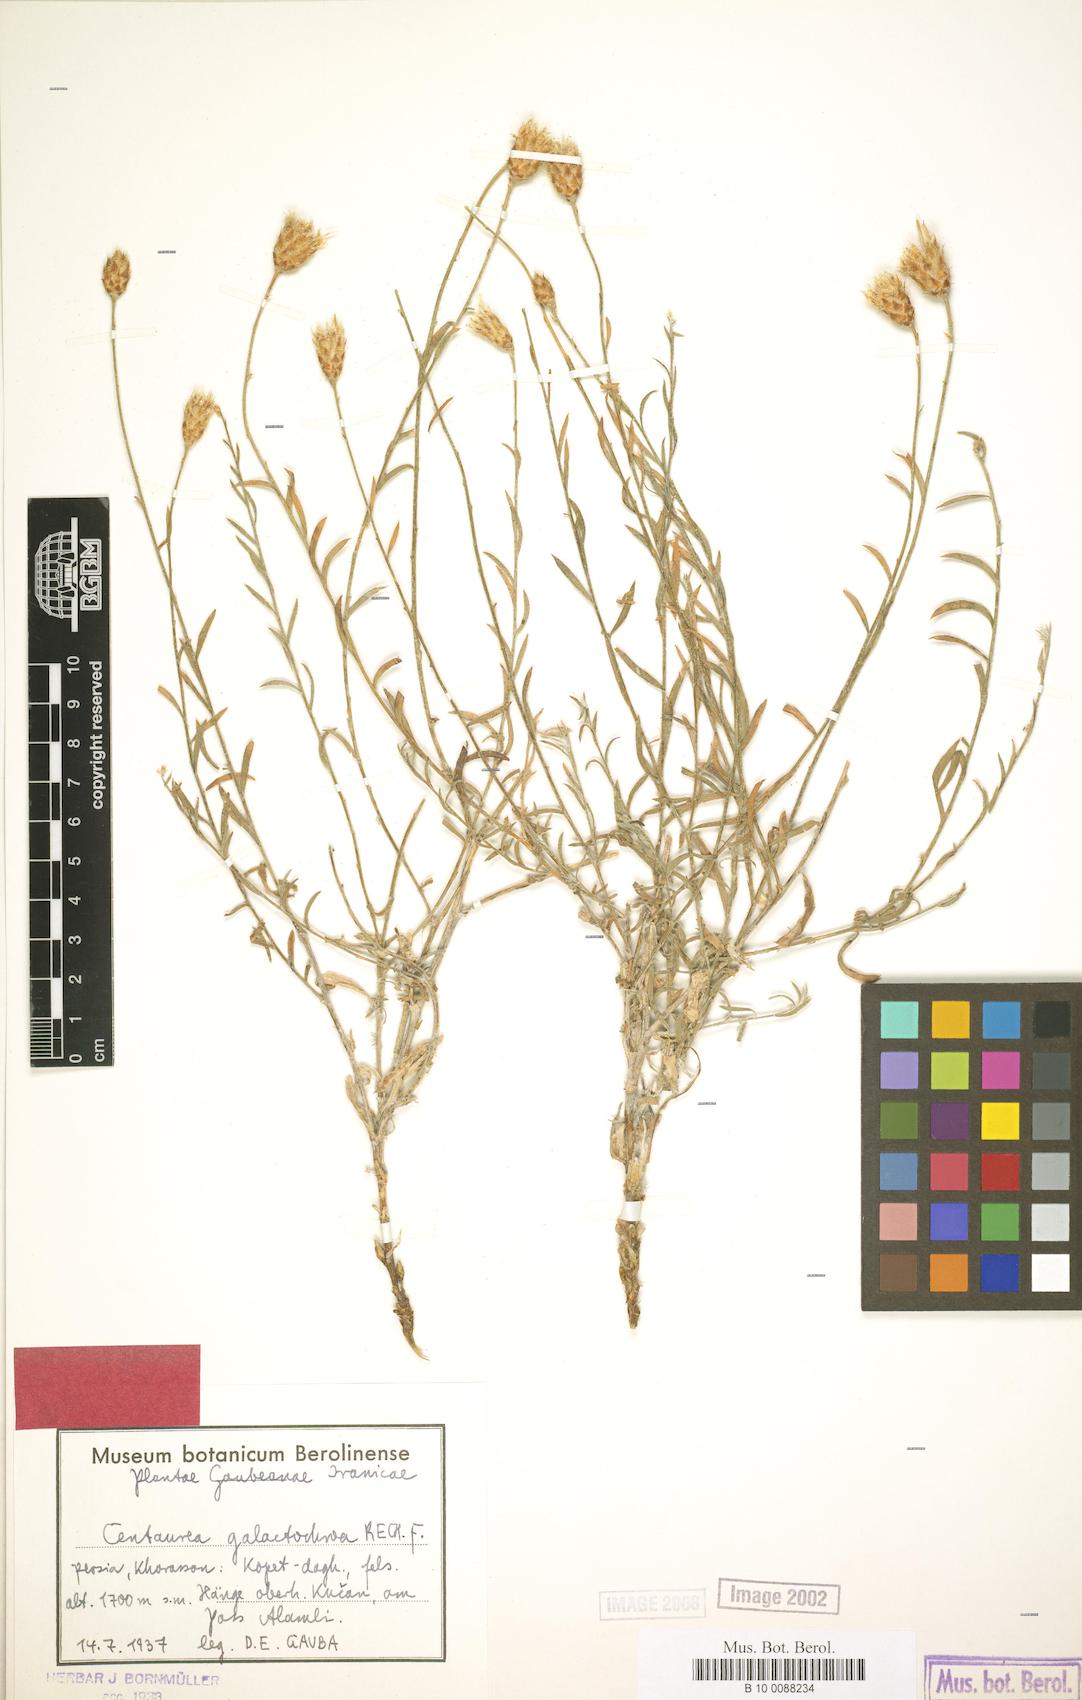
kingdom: Plantae
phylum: Tracheophyta
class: Magnoliopsida
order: Asterales
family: Asteraceae
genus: Psephellus
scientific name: Psephellus galactochroa
